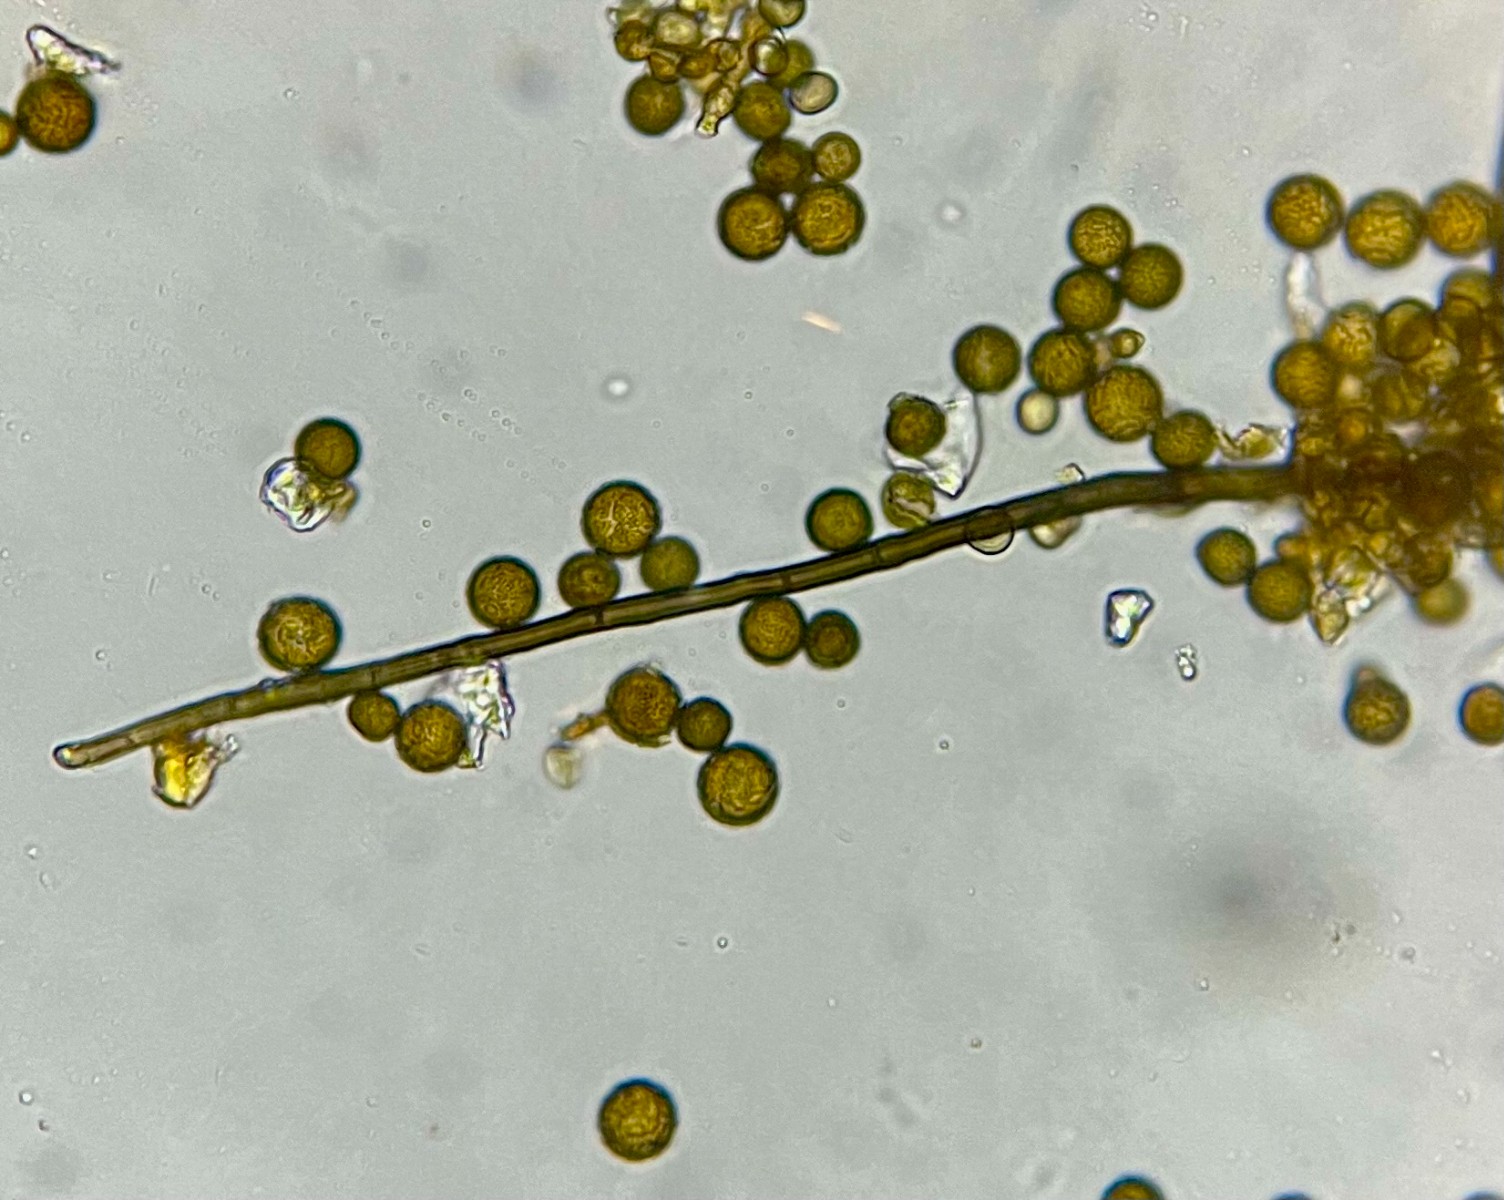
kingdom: Fungi
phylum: Ascomycota
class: Dothideomycetes
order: Pleosporales
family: Periconiaceae
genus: Periconia
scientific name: Periconia hispidula
